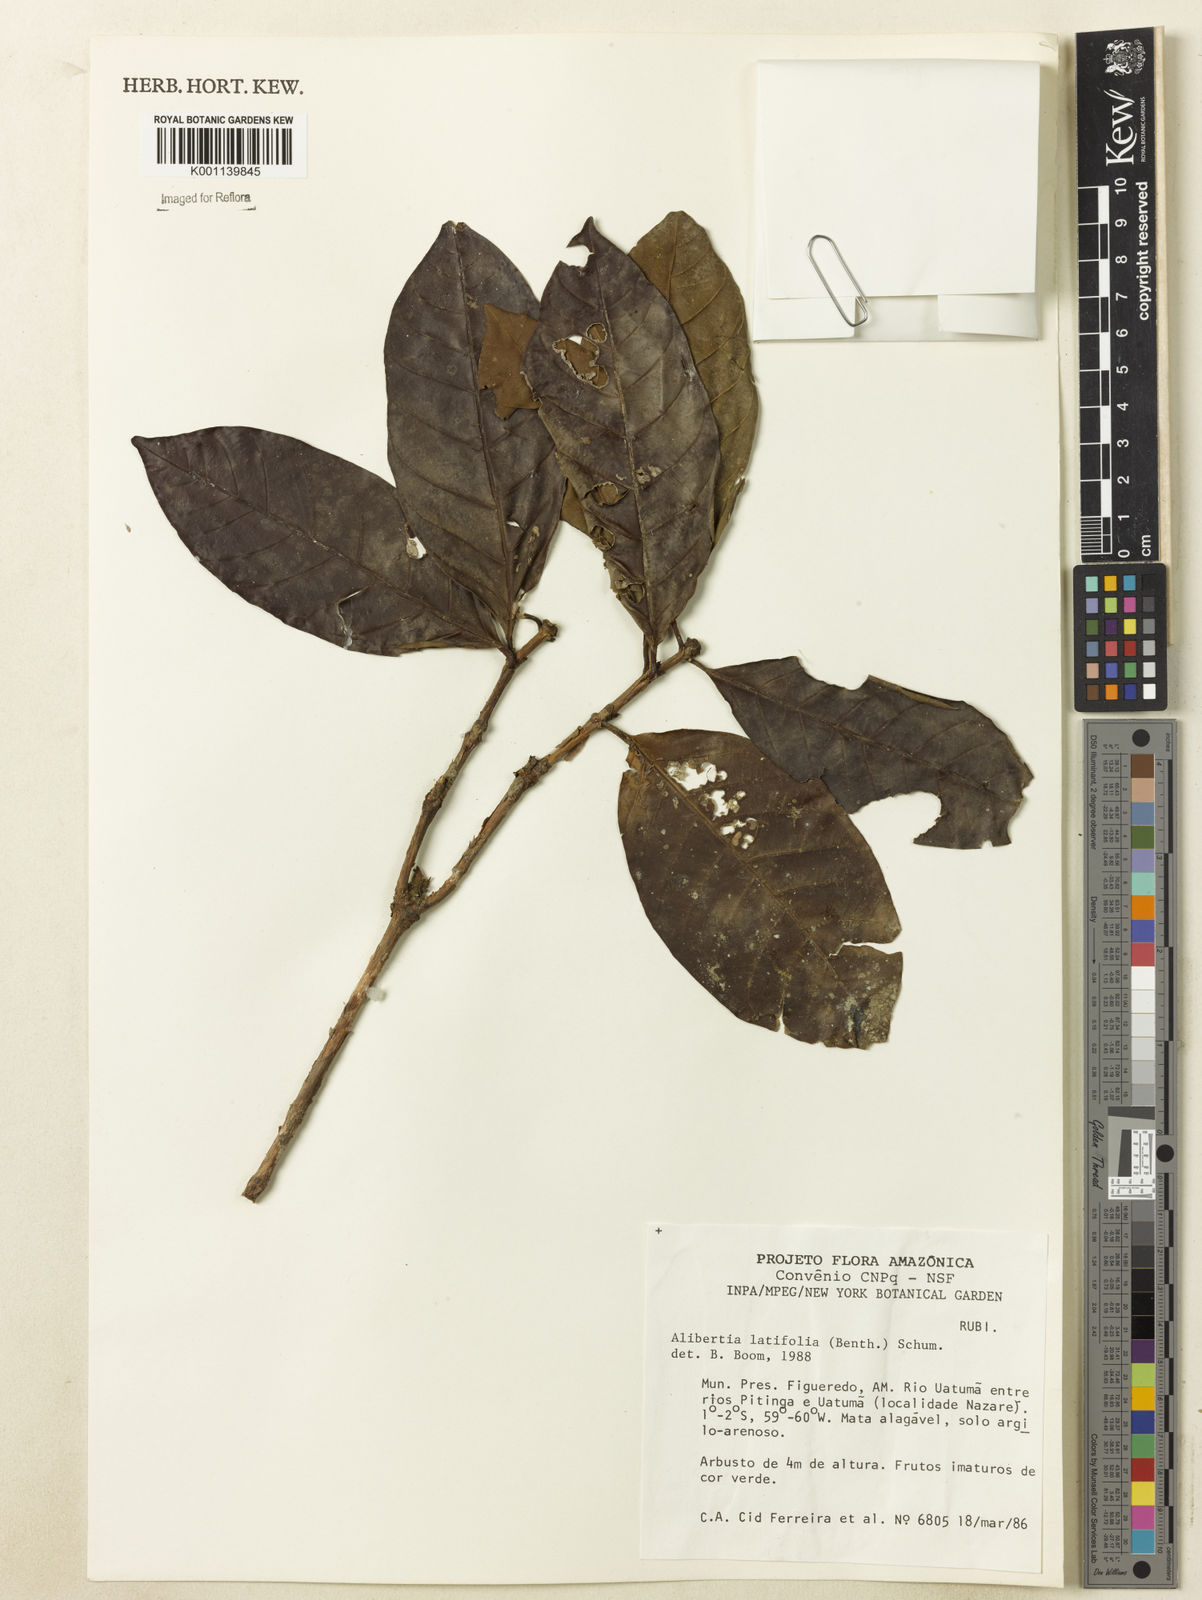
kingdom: Plantae
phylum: Tracheophyta
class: Magnoliopsida
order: Gentianales
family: Rubiaceae
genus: Alibertia
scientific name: Alibertia latifolia
